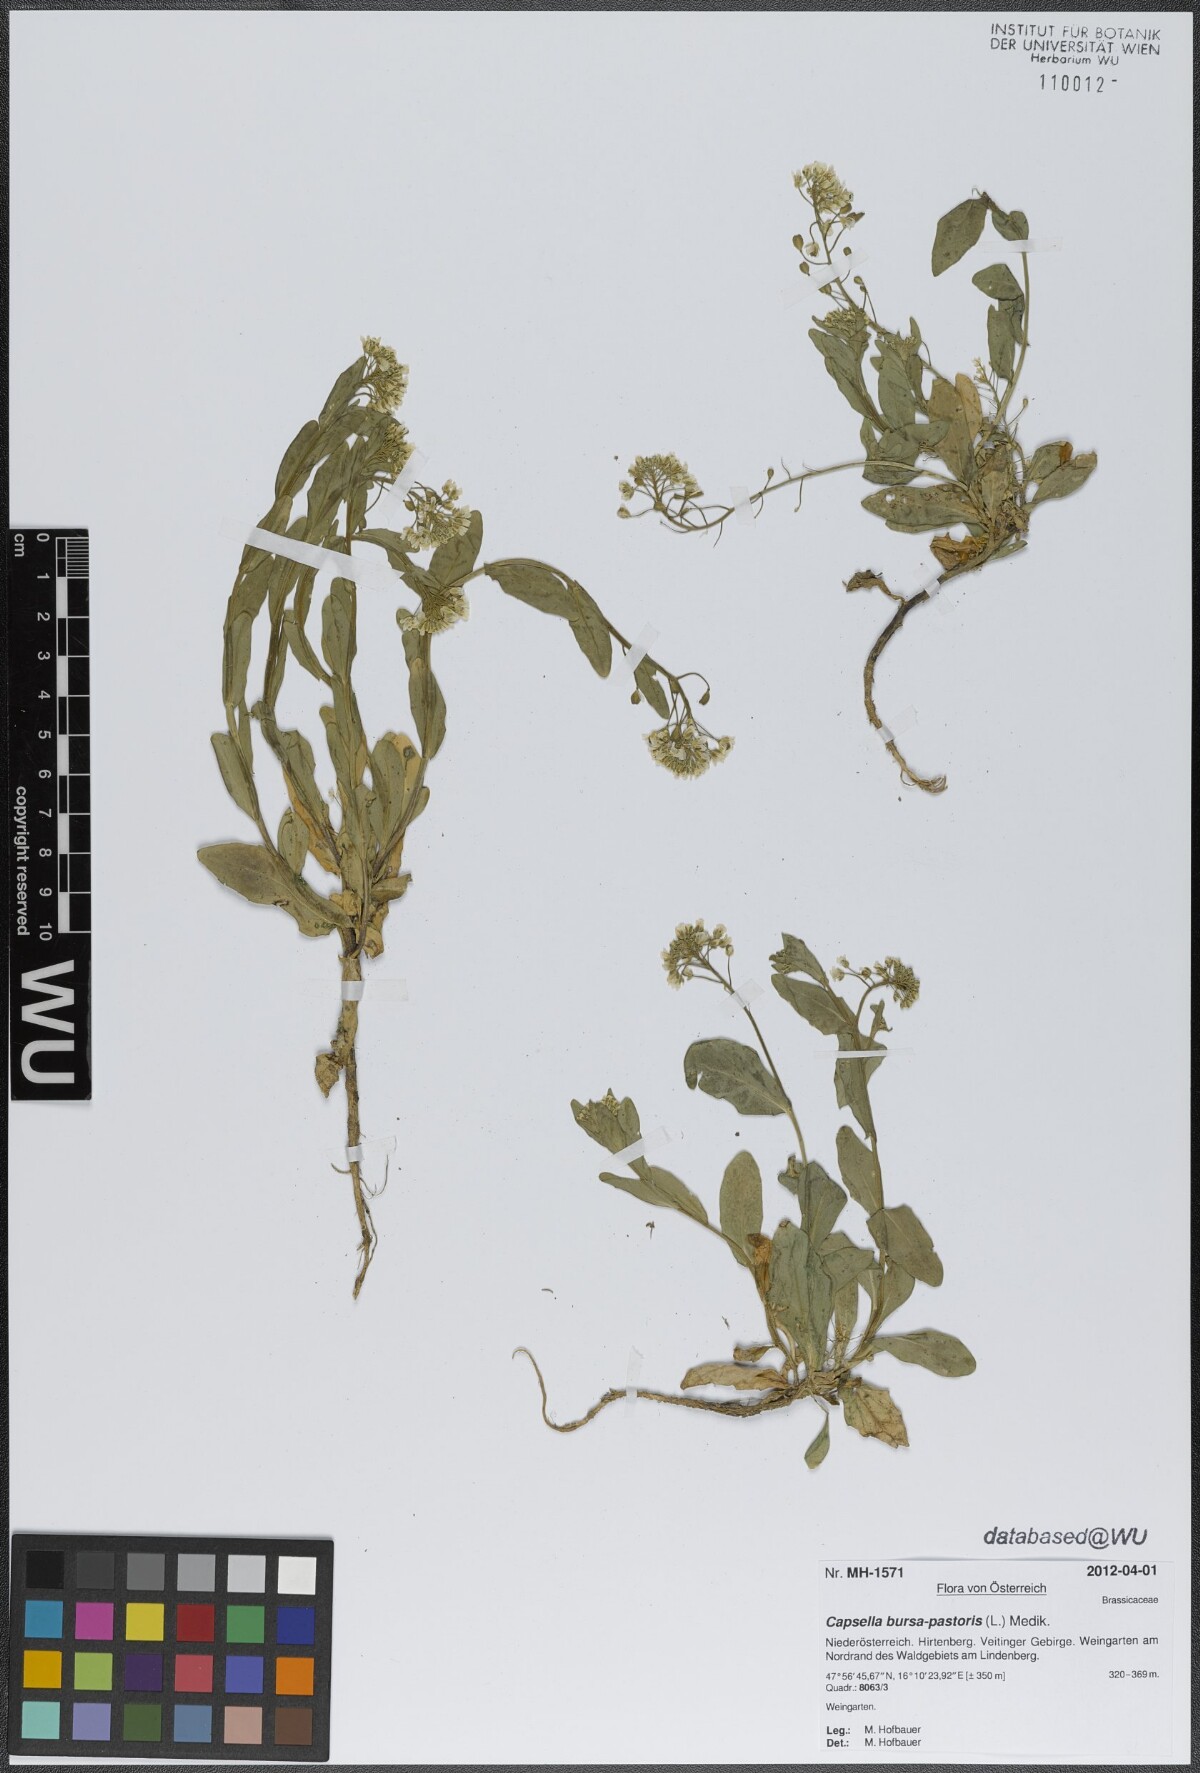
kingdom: Plantae
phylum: Tracheophyta
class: Magnoliopsida
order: Brassicales
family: Brassicaceae
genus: Capsella
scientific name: Capsella bursa-pastoris
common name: Shepherd's purse
